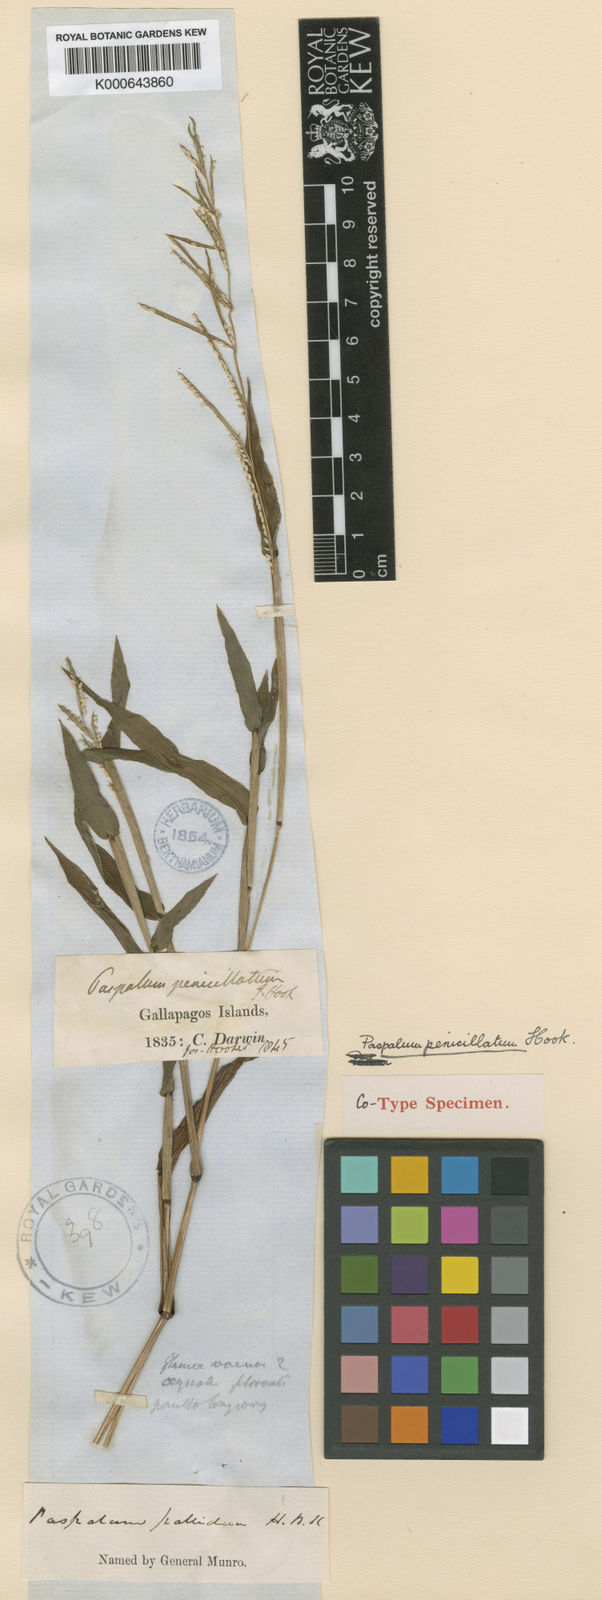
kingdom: Plantae
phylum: Tracheophyta
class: Liliopsida
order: Poales
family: Poaceae
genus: Paspalum
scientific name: Paspalum penicillatum
